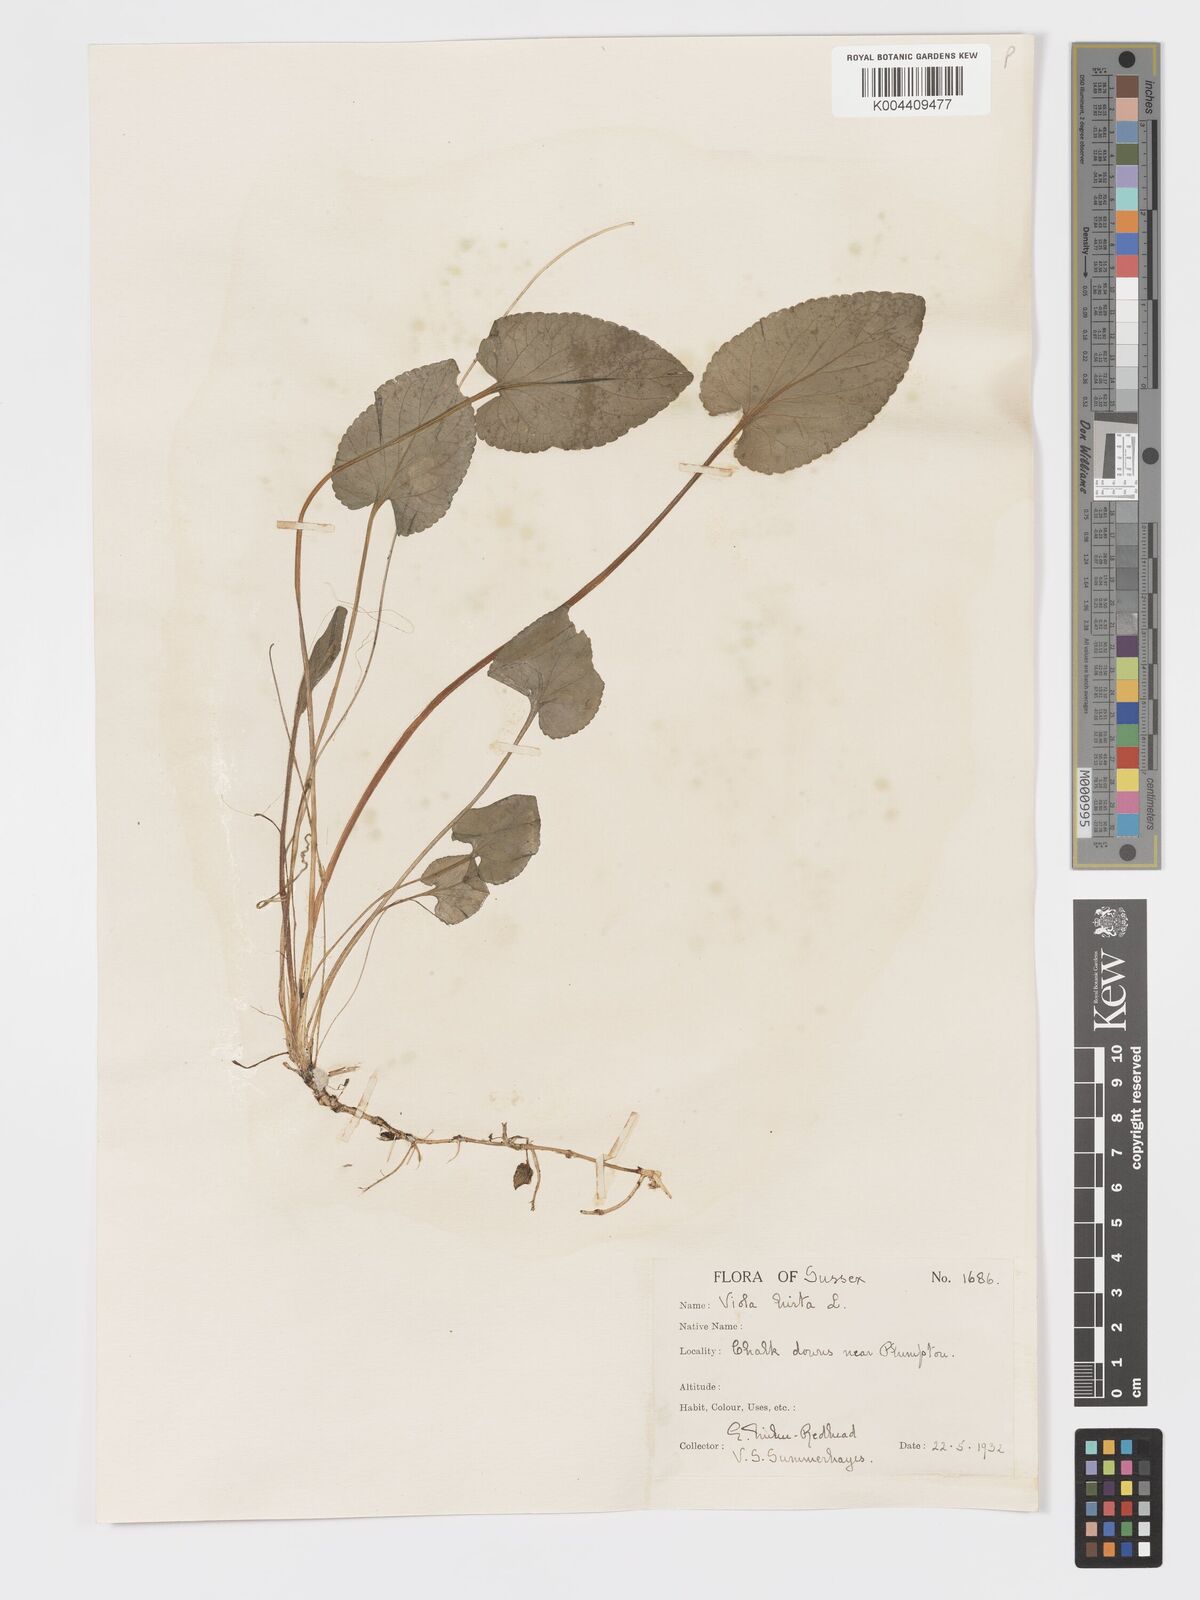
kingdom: Plantae
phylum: Tracheophyta
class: Magnoliopsida
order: Malpighiales
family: Violaceae
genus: Viola
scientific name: Viola
